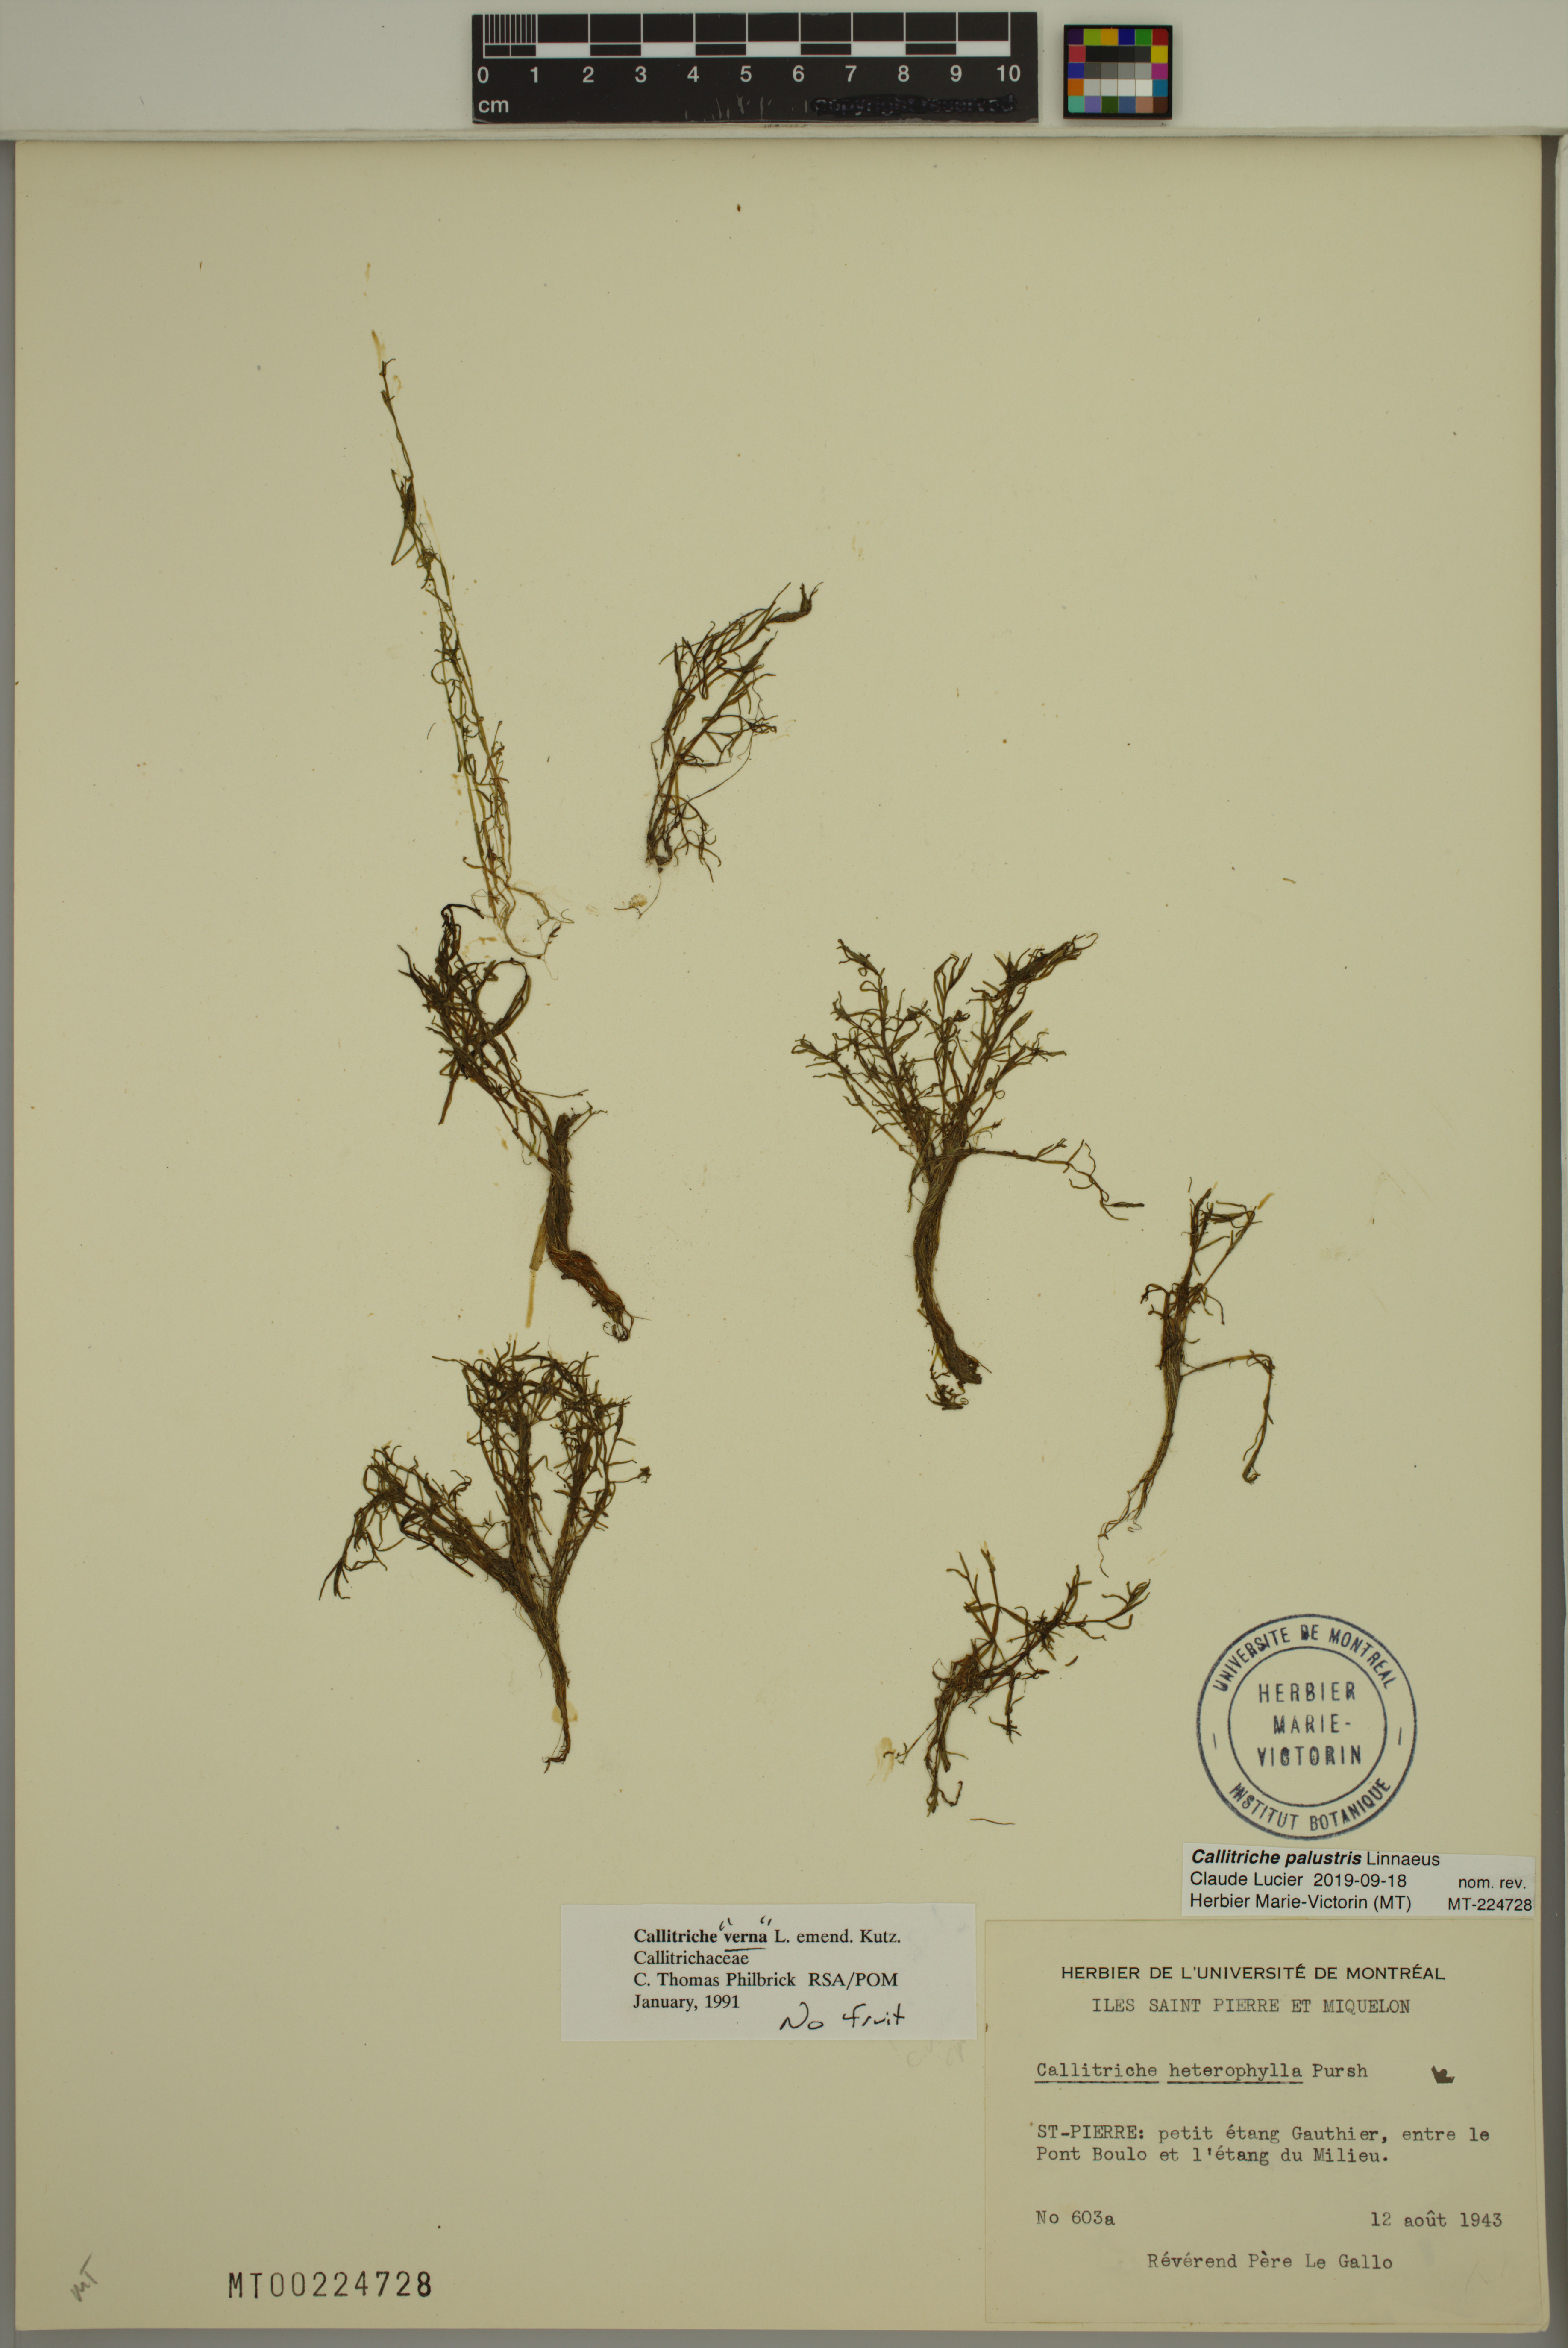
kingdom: Plantae
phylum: Tracheophyta
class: Magnoliopsida
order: Lamiales
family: Plantaginaceae
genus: Callitriche
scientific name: Callitriche palustris
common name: Spring water-starwort
